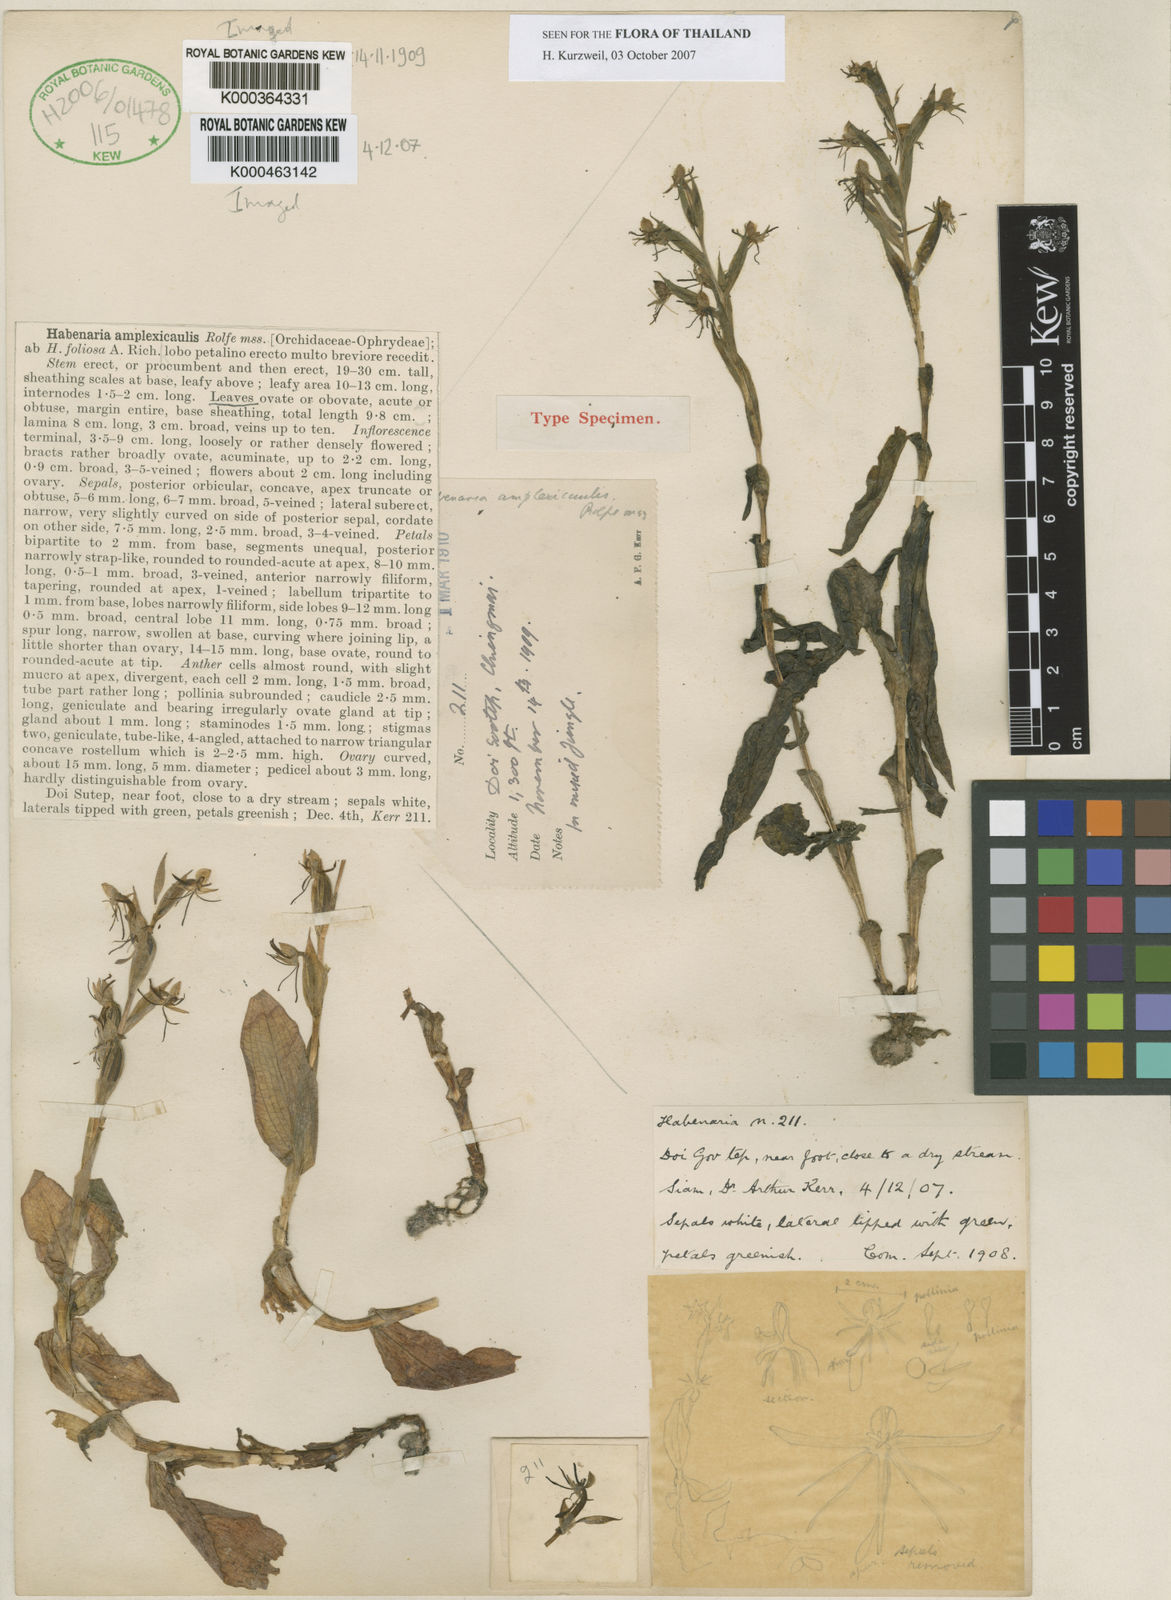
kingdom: Plantae
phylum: Tracheophyta
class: Liliopsida
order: Asparagales
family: Orchidaceae
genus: Habenaria
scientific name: Habenaria amplexicaulis
